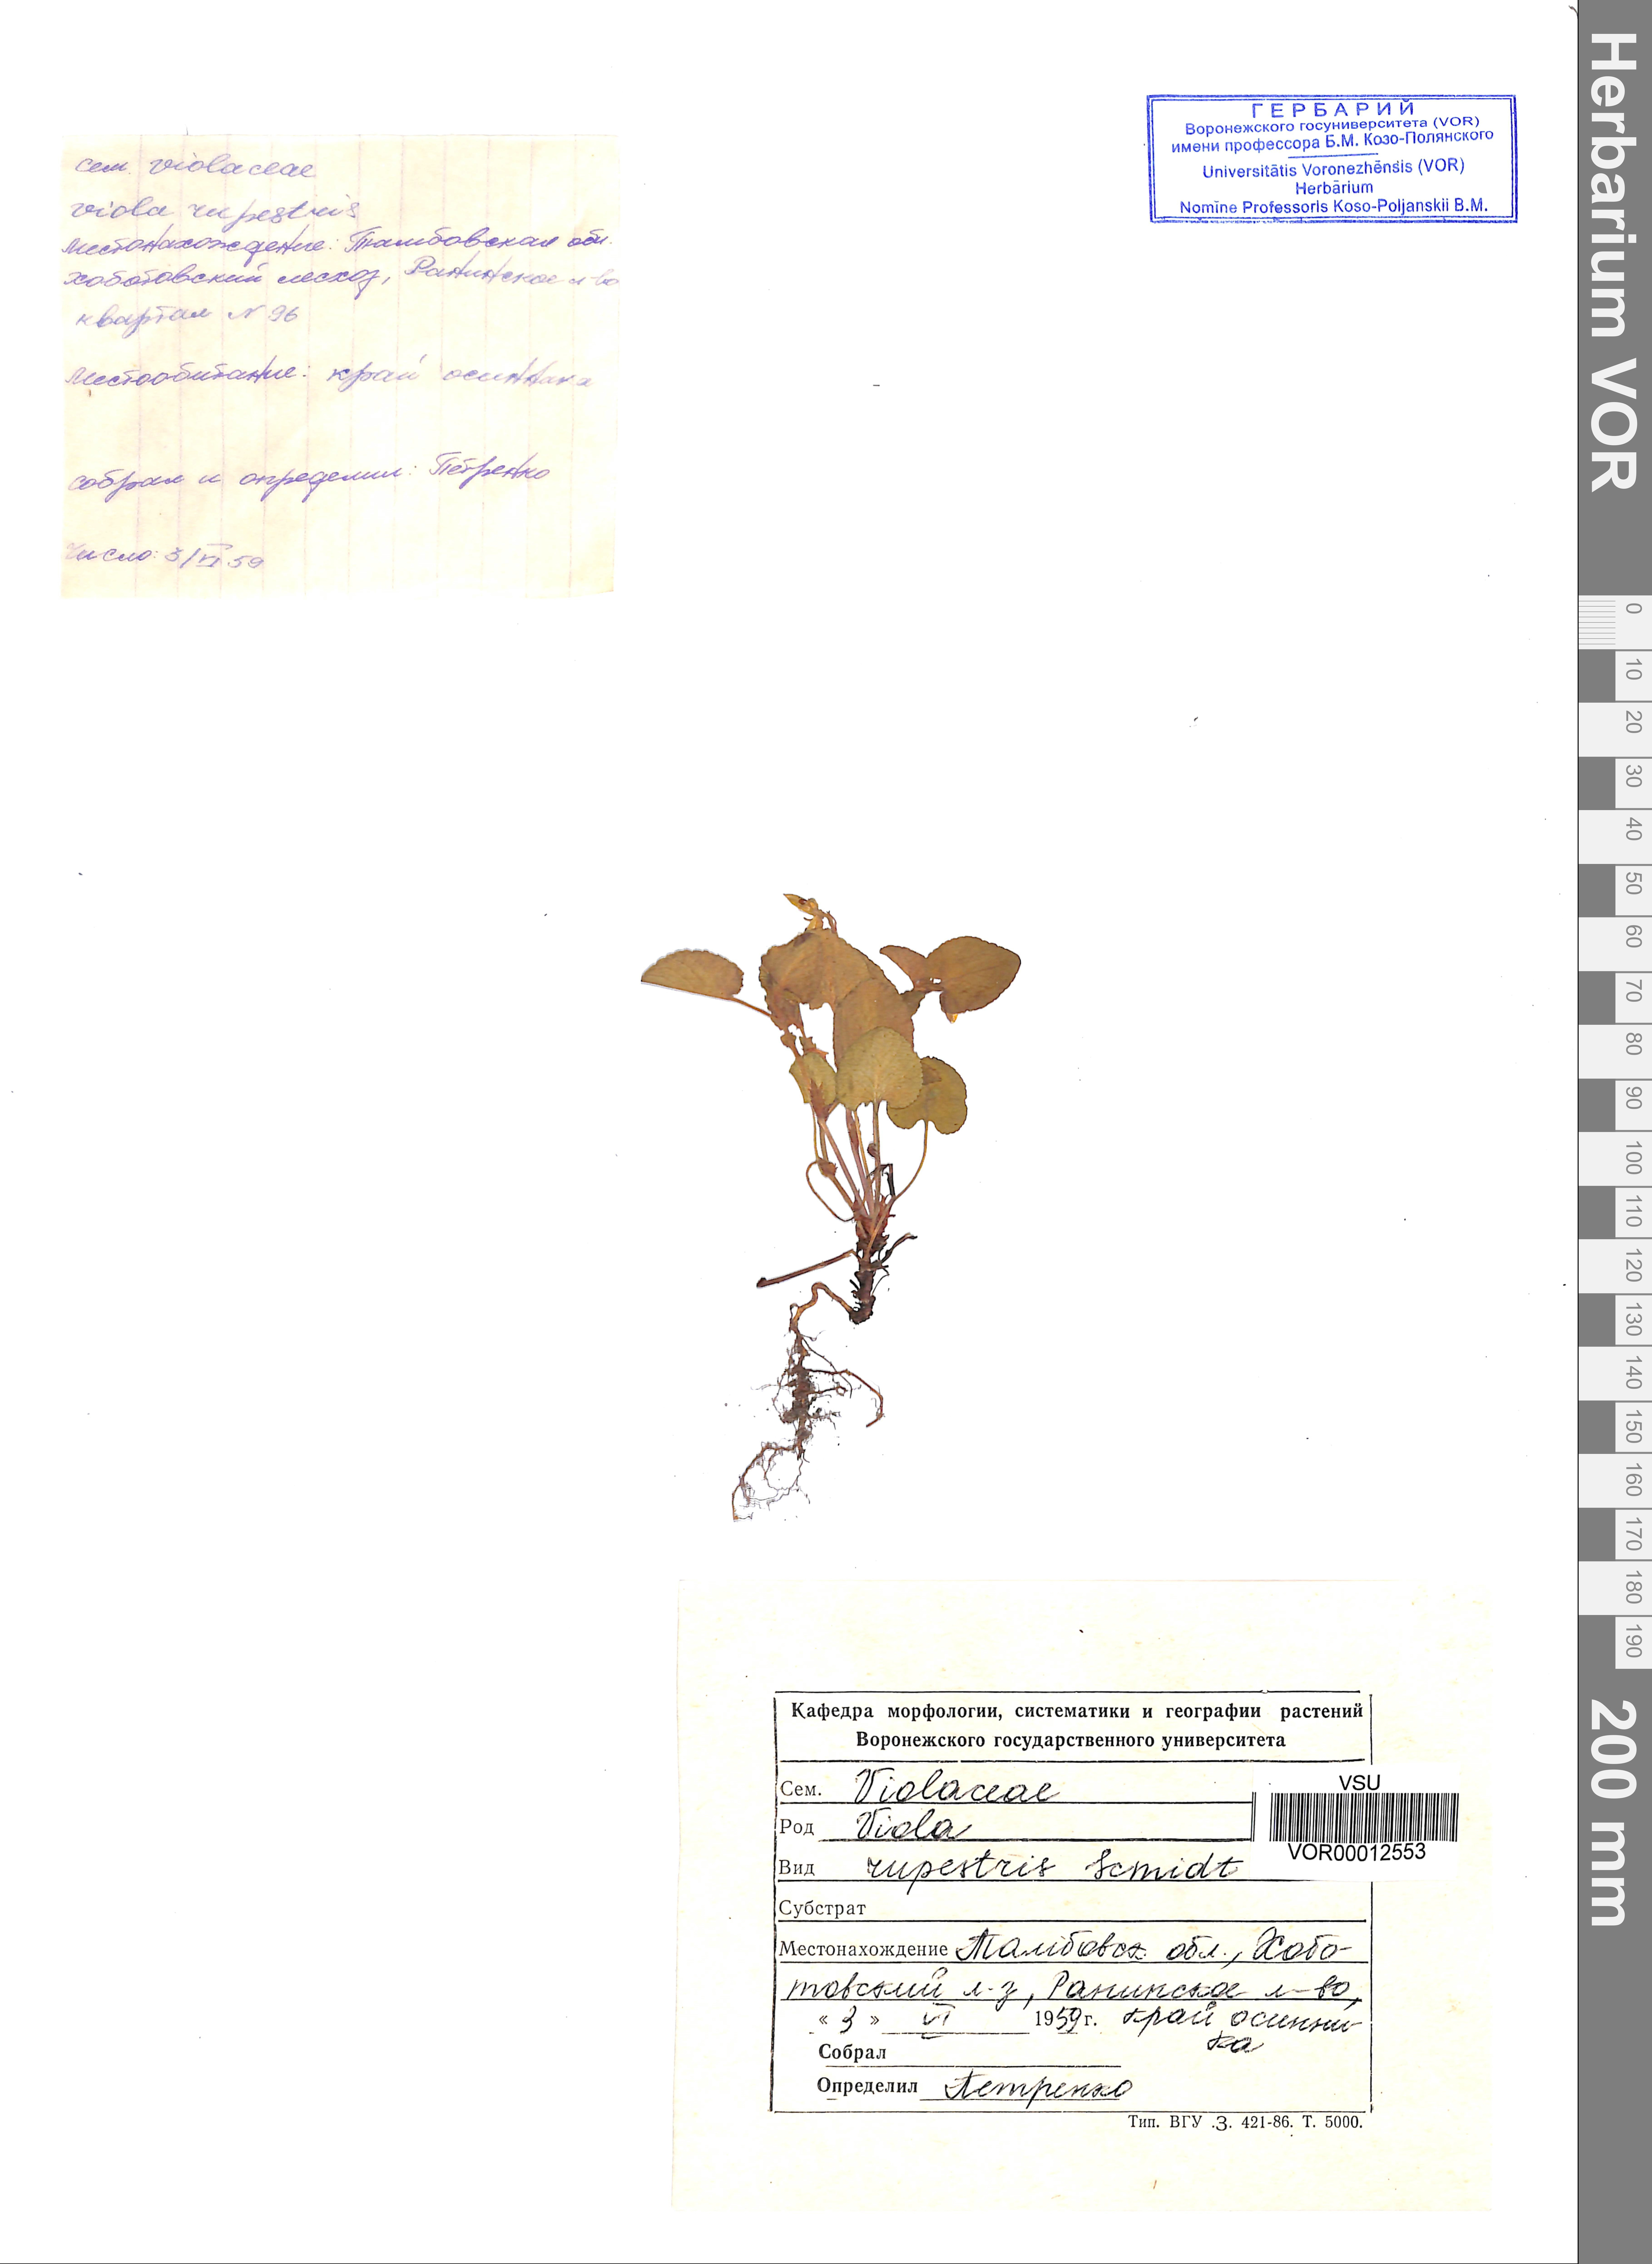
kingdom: Plantae
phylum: Tracheophyta
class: Magnoliopsida
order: Malpighiales
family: Violaceae
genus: Viola
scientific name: Viola rupestris
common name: Teesdale violet
